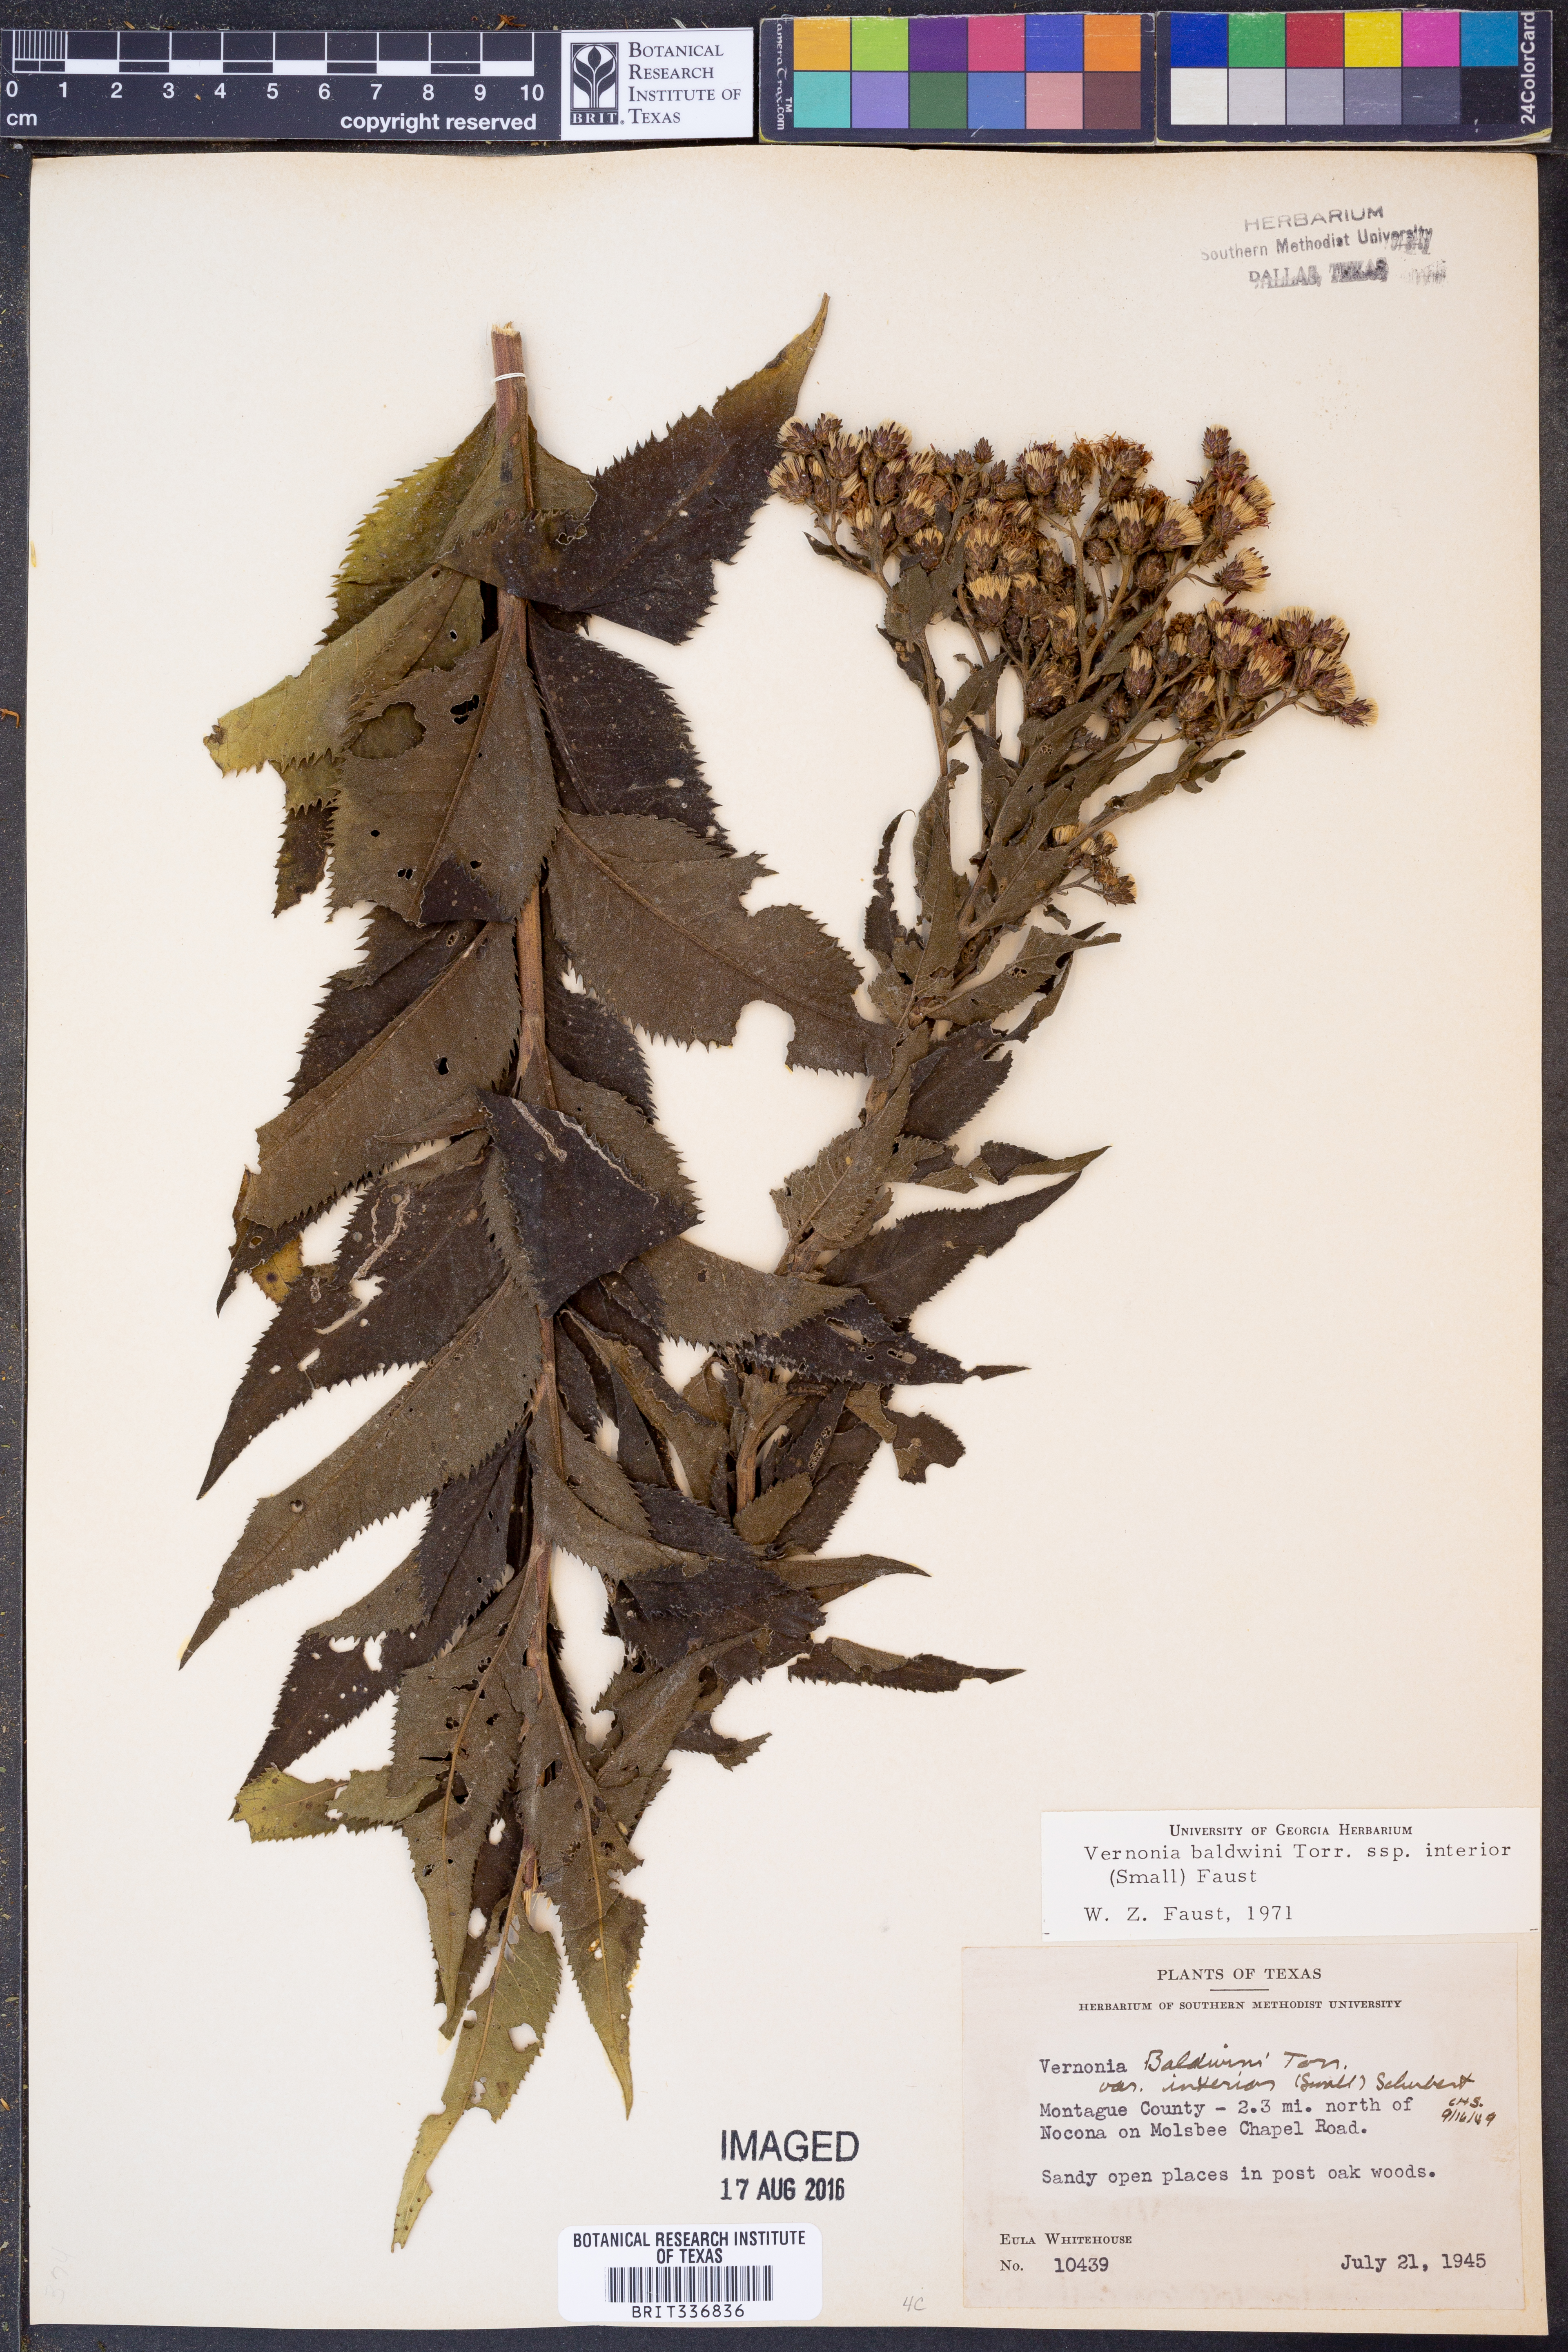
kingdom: Plantae
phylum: Tracheophyta
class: Magnoliopsida
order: Asterales
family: Asteraceae
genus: Vernonia
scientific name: Vernonia baldwinii
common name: Western ironweed
